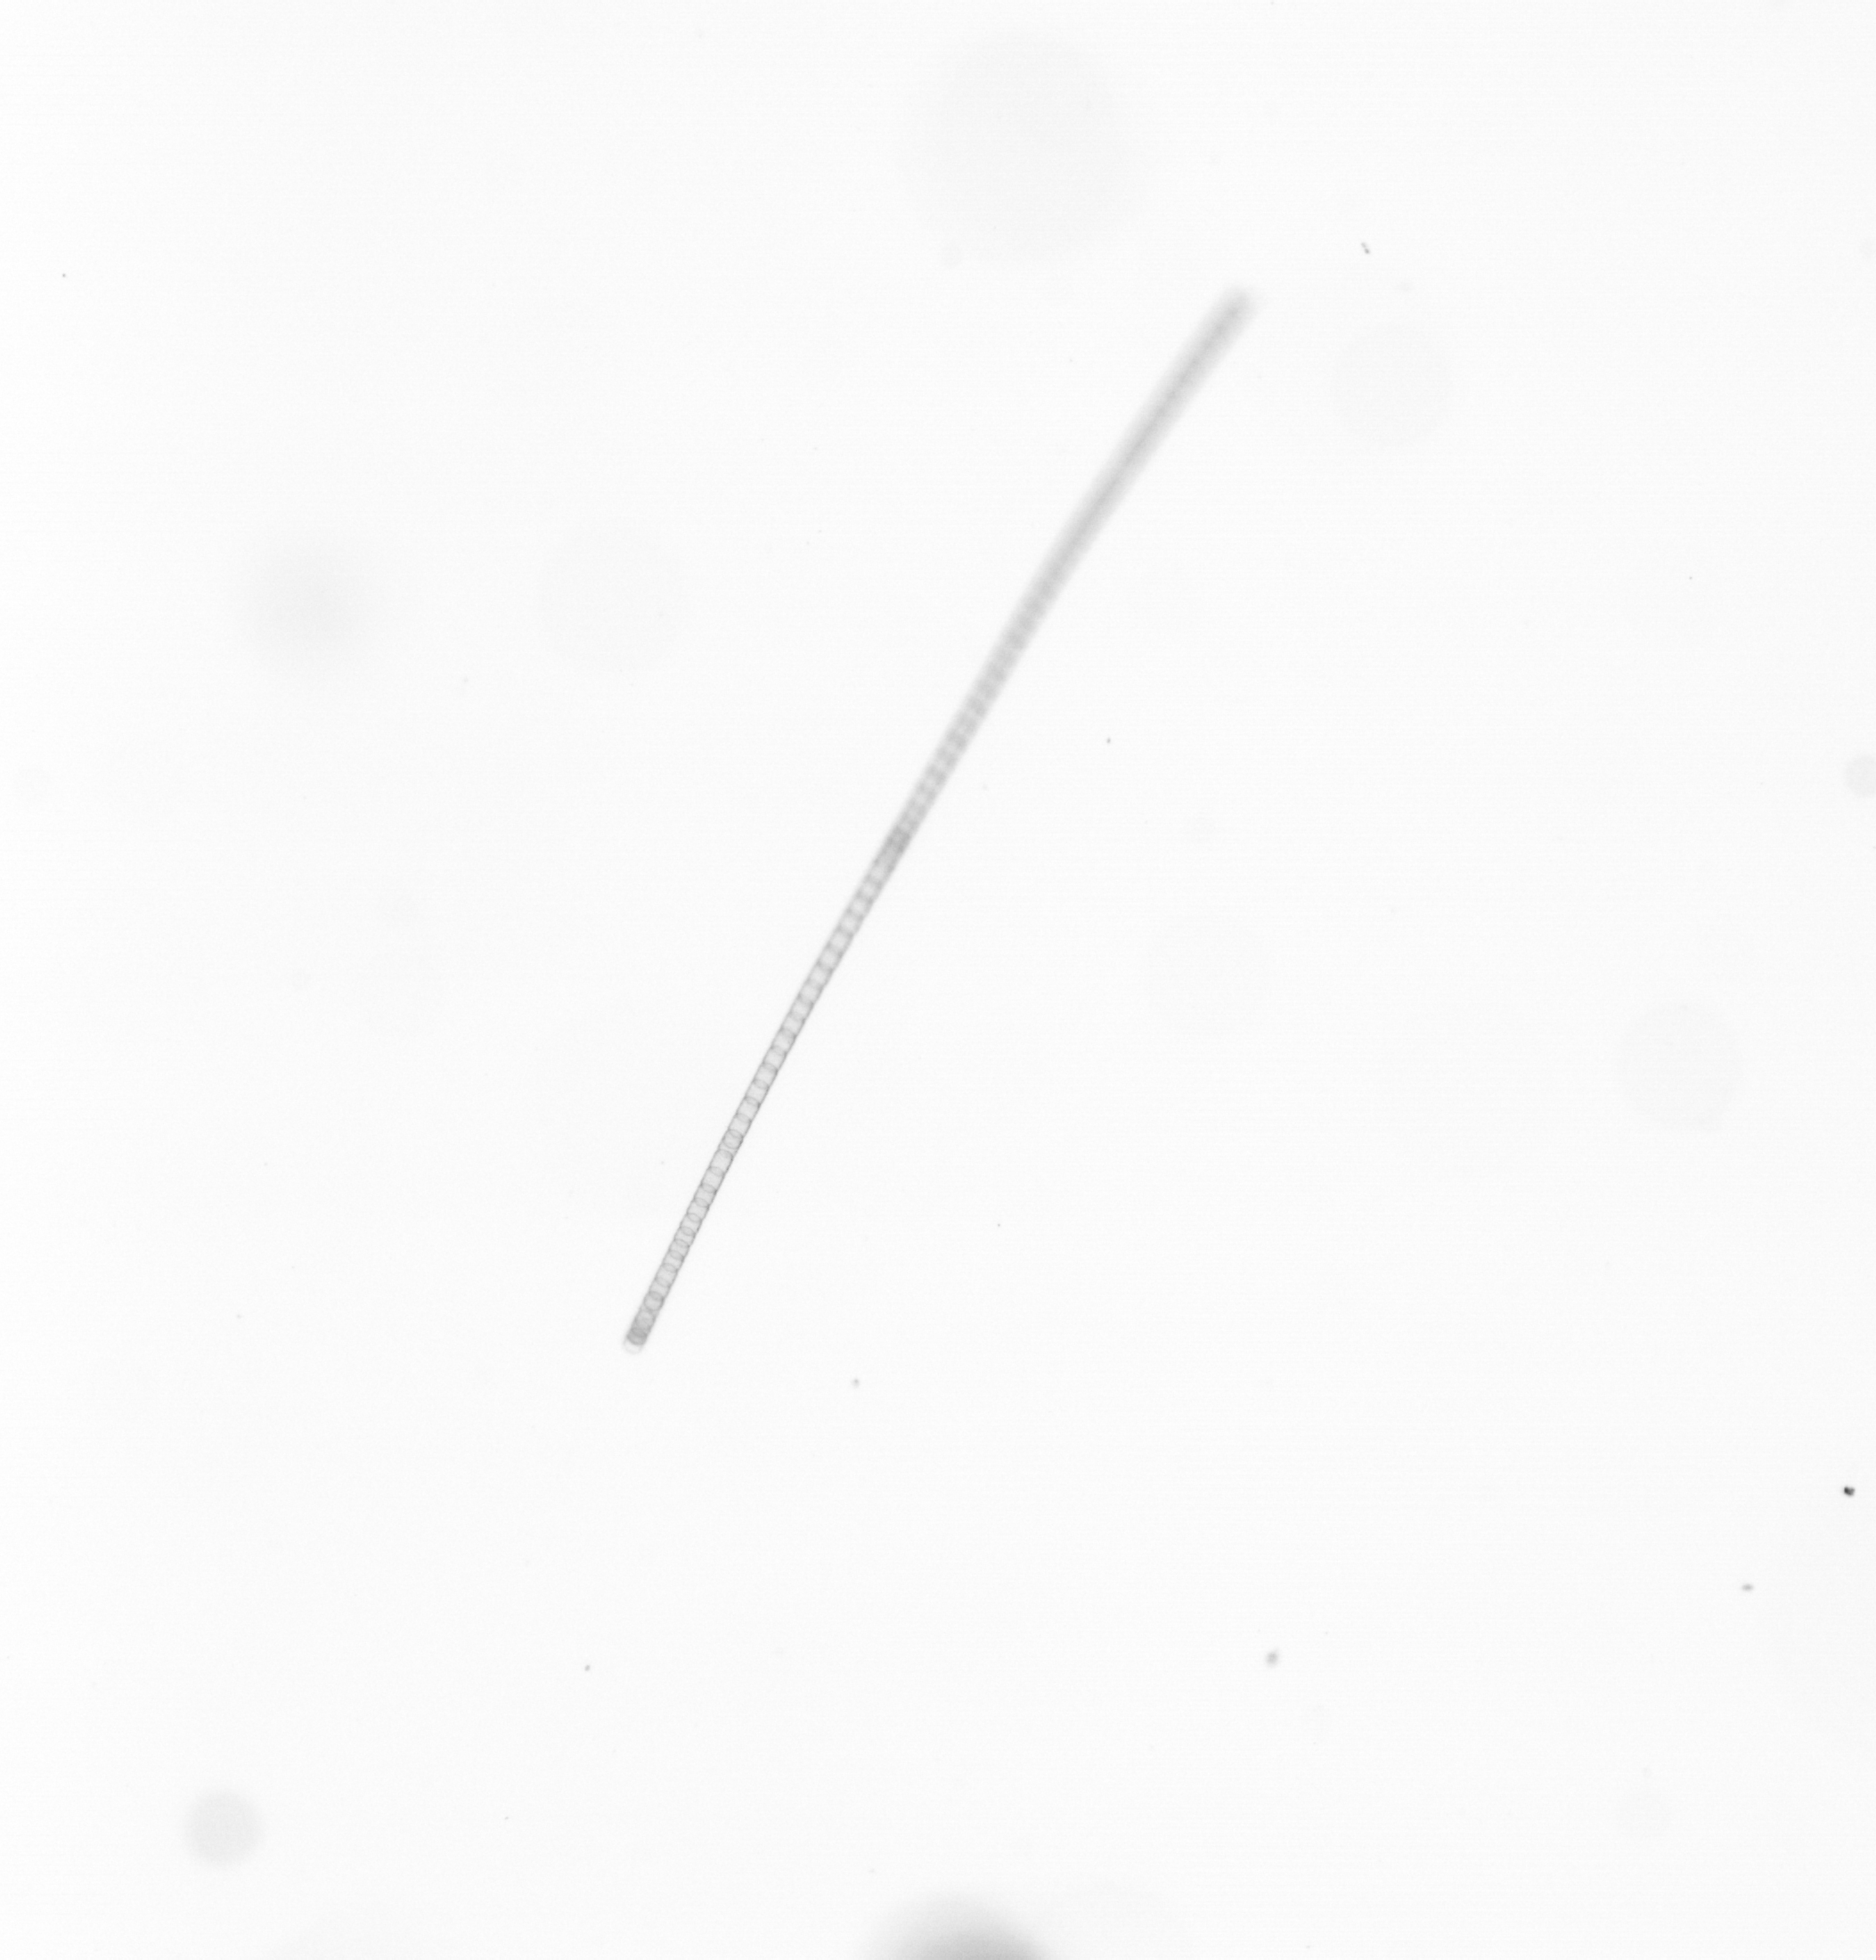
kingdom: Chromista
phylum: Ochrophyta
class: Bacillariophyceae
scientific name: Bacillariophyceae
